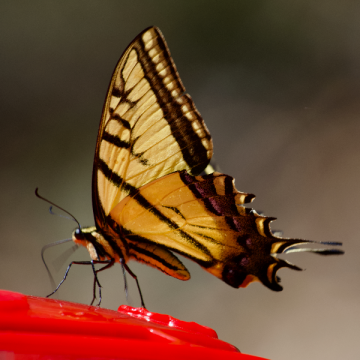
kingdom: Animalia
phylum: Arthropoda
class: Insecta
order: Lepidoptera
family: Papilionidae
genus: Papilio
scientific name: Papilio multicaudata
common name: Two-tailed Swallowtail
